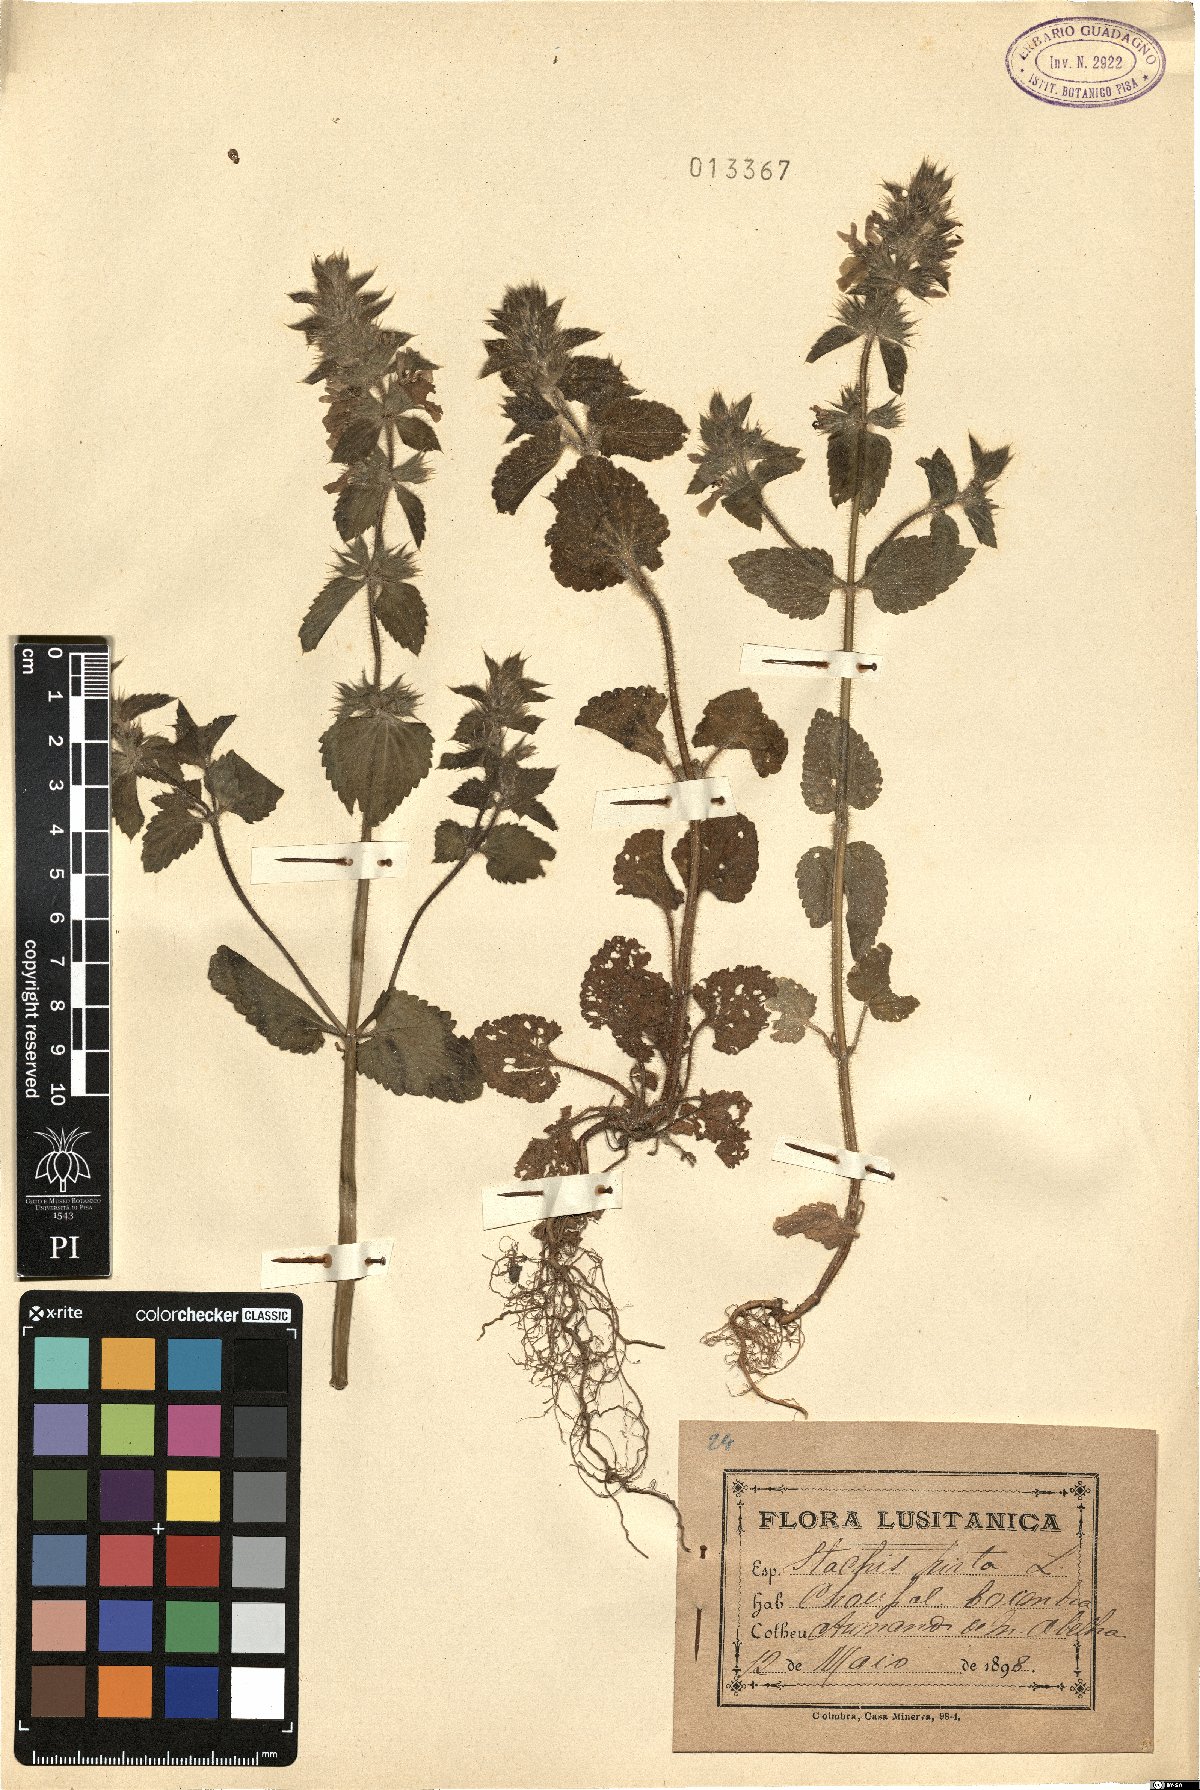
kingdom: Plantae
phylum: Tracheophyta
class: Magnoliopsida
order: Lamiales
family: Lamiaceae
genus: Stachys
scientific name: Stachys ocymastrum
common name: Italian hedgenettle
